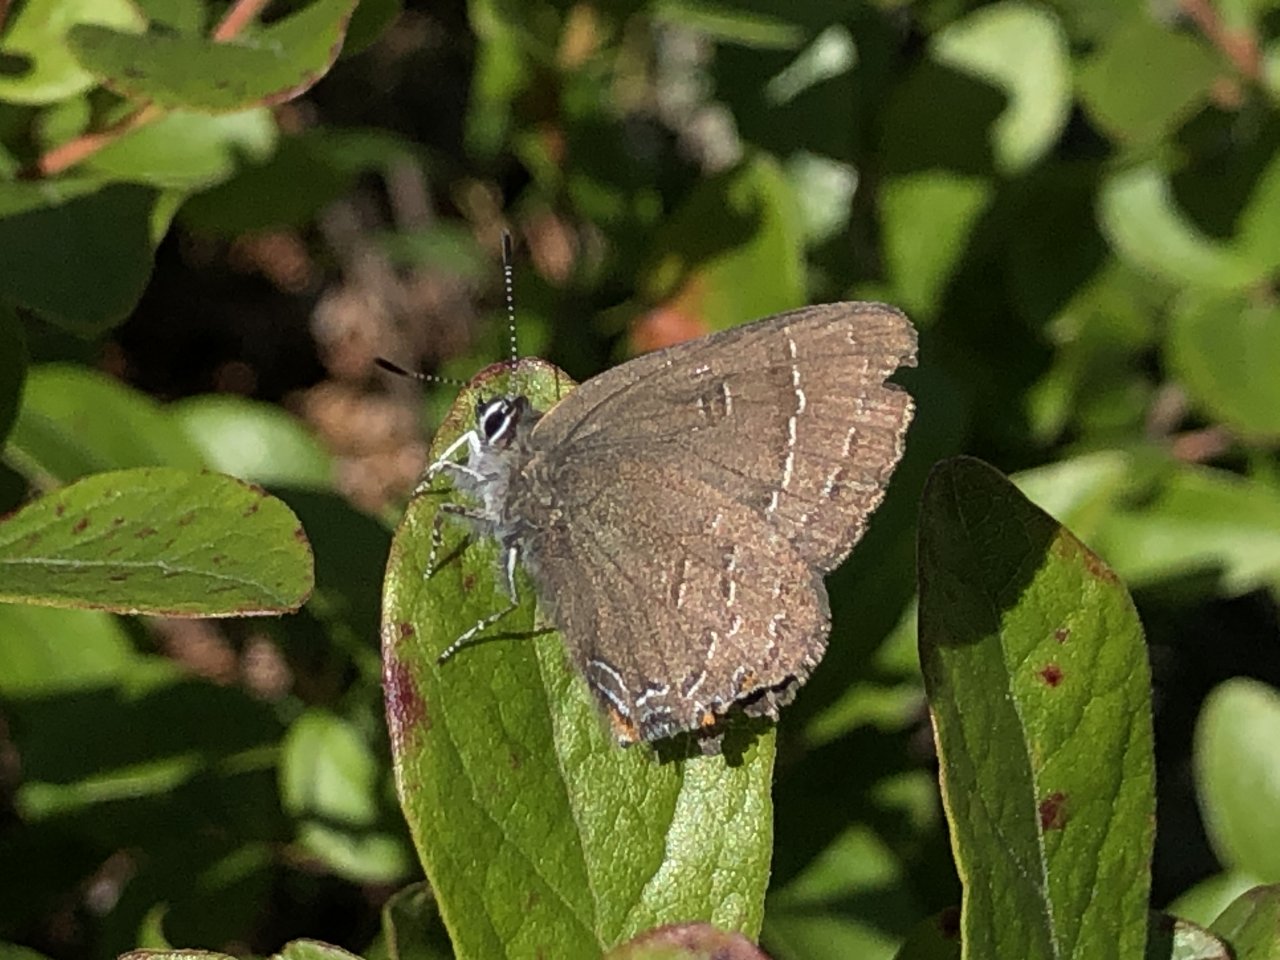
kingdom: Animalia
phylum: Arthropoda
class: Insecta
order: Lepidoptera
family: Lycaenidae
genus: Satyrium
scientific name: Satyrium calanus
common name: Banded Hairstreak
